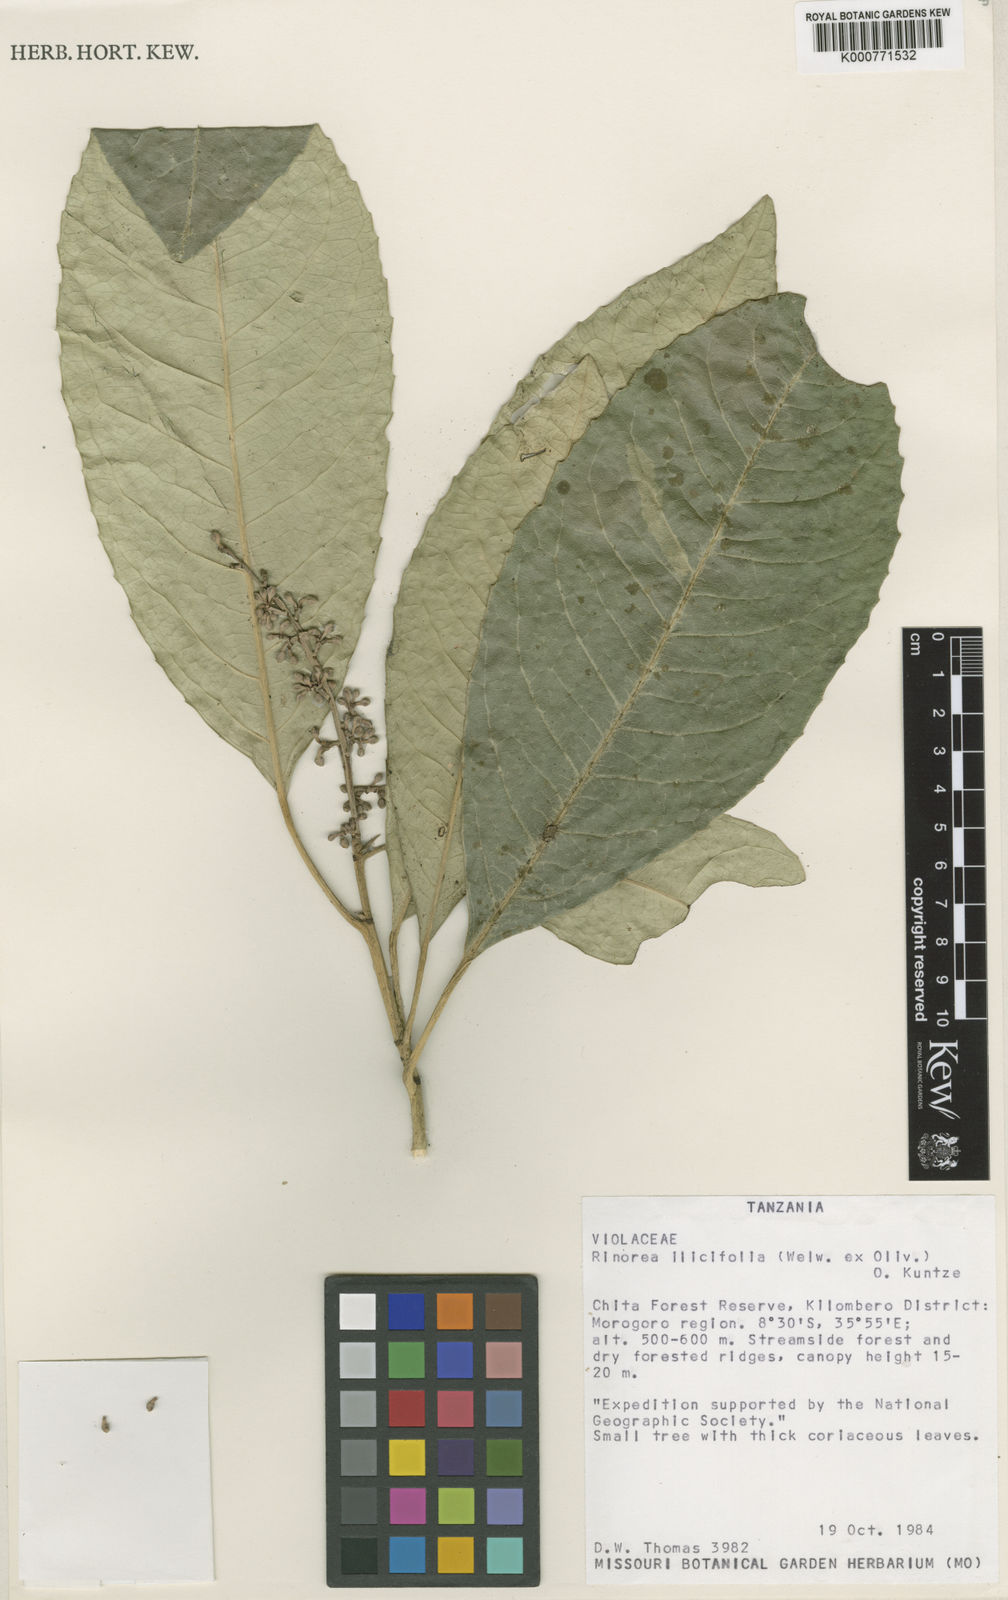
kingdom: Plantae
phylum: Tracheophyta
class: Magnoliopsida
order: Malpighiales
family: Violaceae
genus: Rinorea
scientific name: Rinorea ilicifolia
